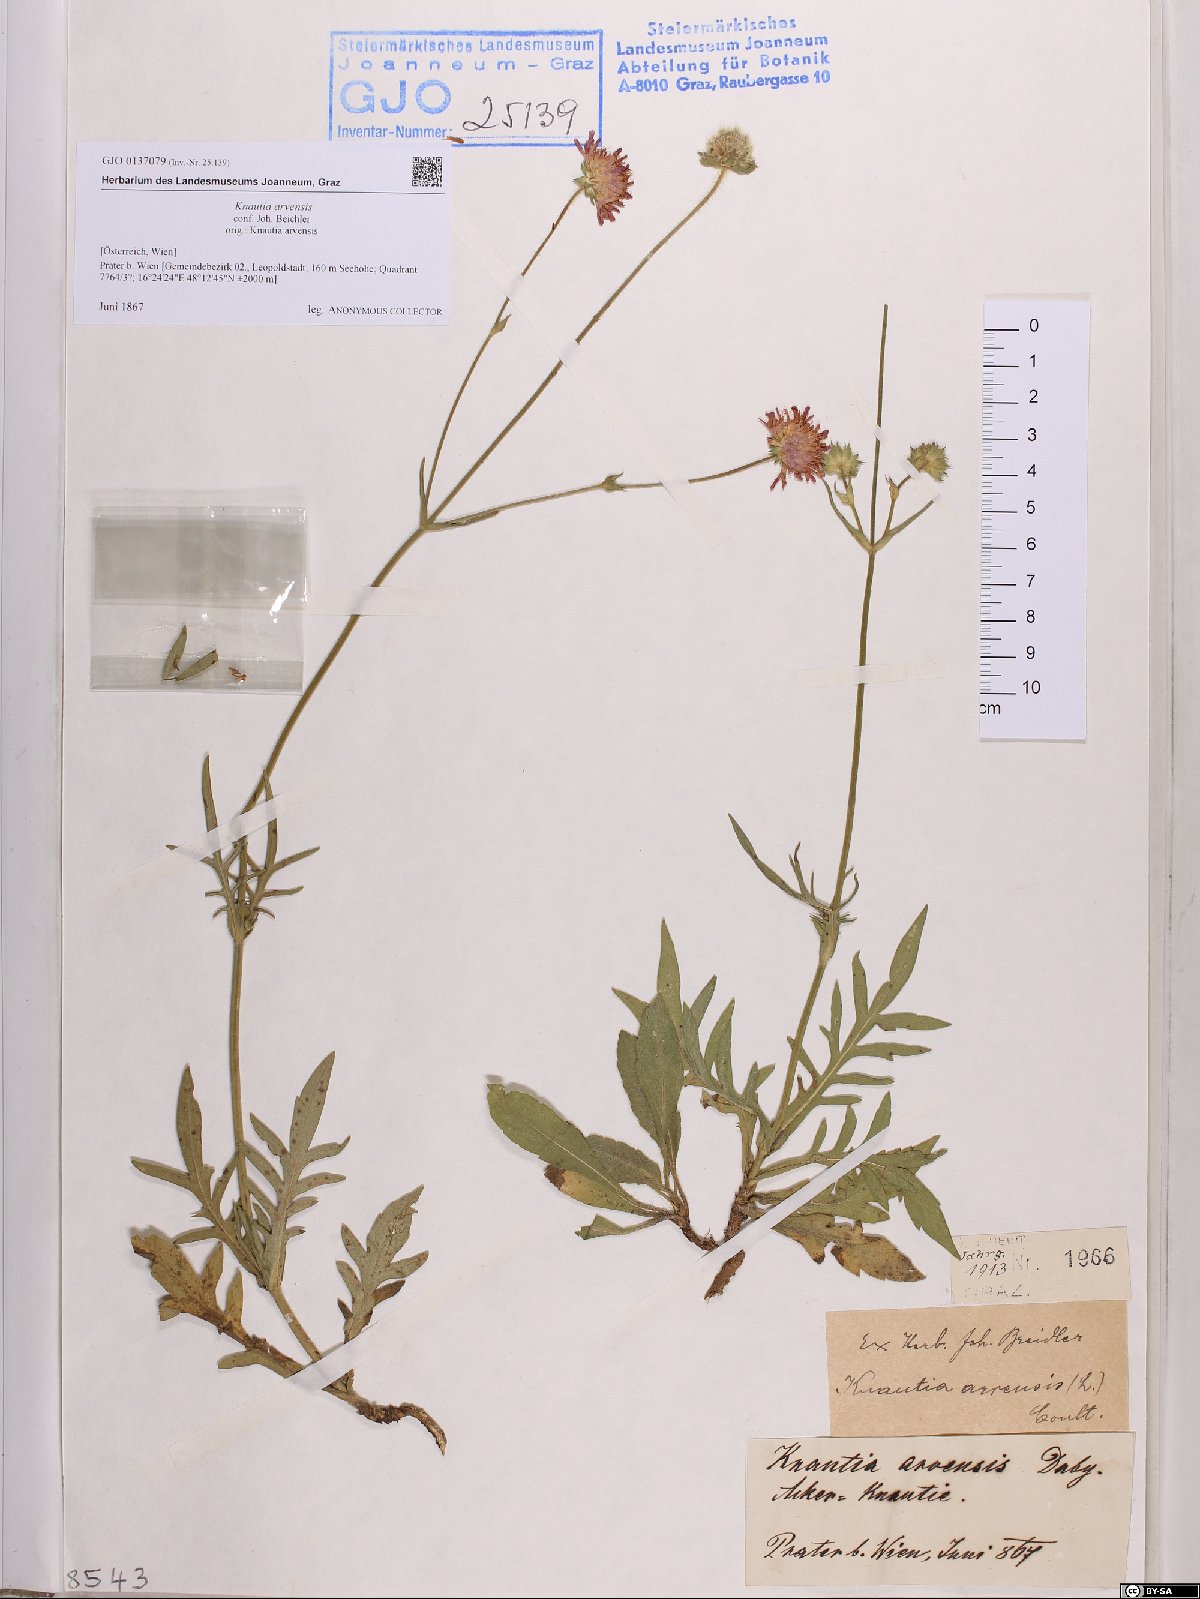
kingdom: Plantae
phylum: Tracheophyta
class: Magnoliopsida
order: Dipsacales
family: Caprifoliaceae
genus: Knautia
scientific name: Knautia arvensis
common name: Field scabiosa
